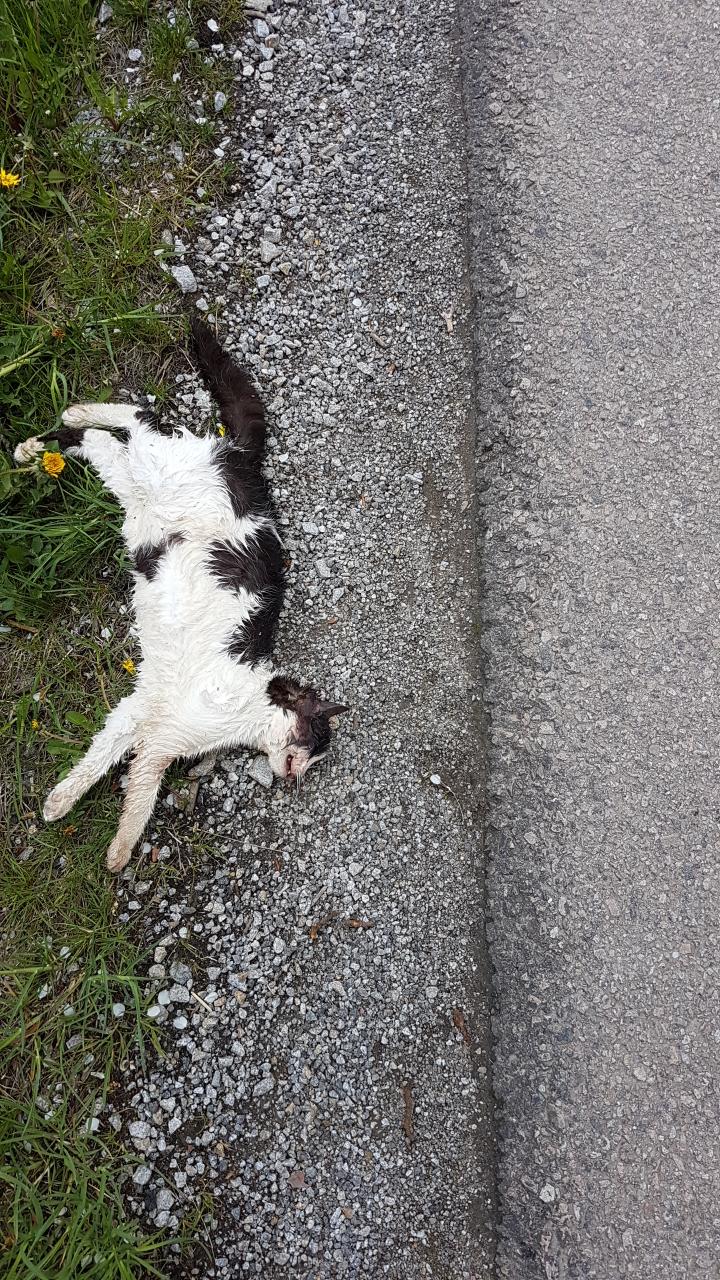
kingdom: Animalia
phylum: Chordata
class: Mammalia
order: Carnivora
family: Felidae
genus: Felis
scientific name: Felis catus
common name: Domestic cat
